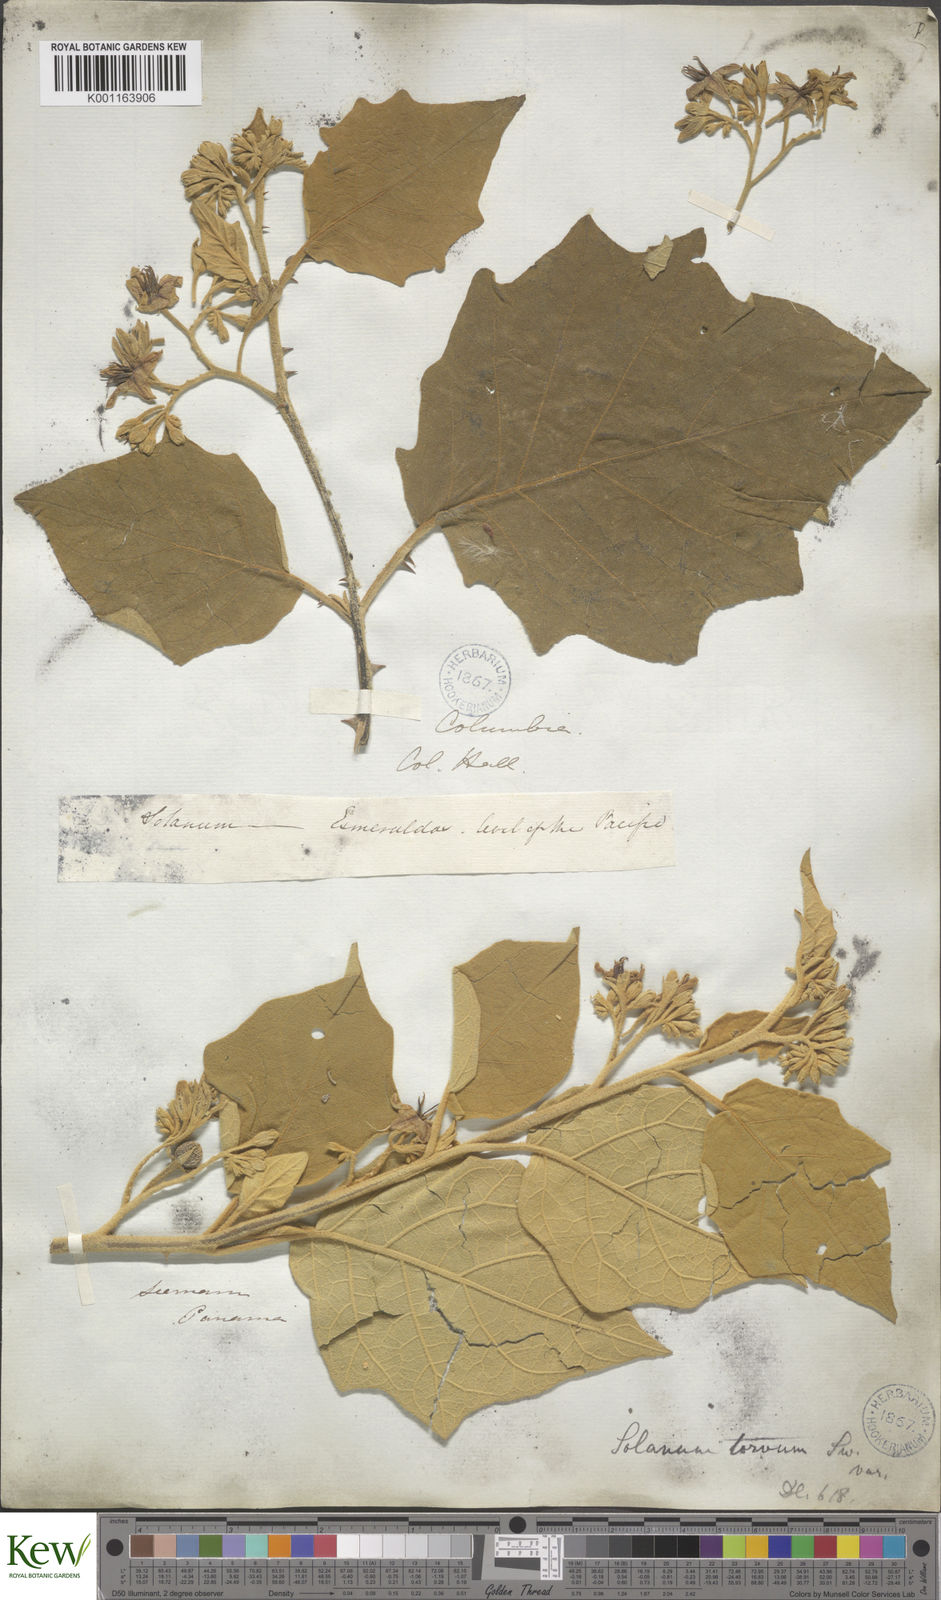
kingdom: Plantae
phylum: Tracheophyta
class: Magnoliopsida
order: Solanales
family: Solanaceae
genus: Solanum
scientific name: Solanum
